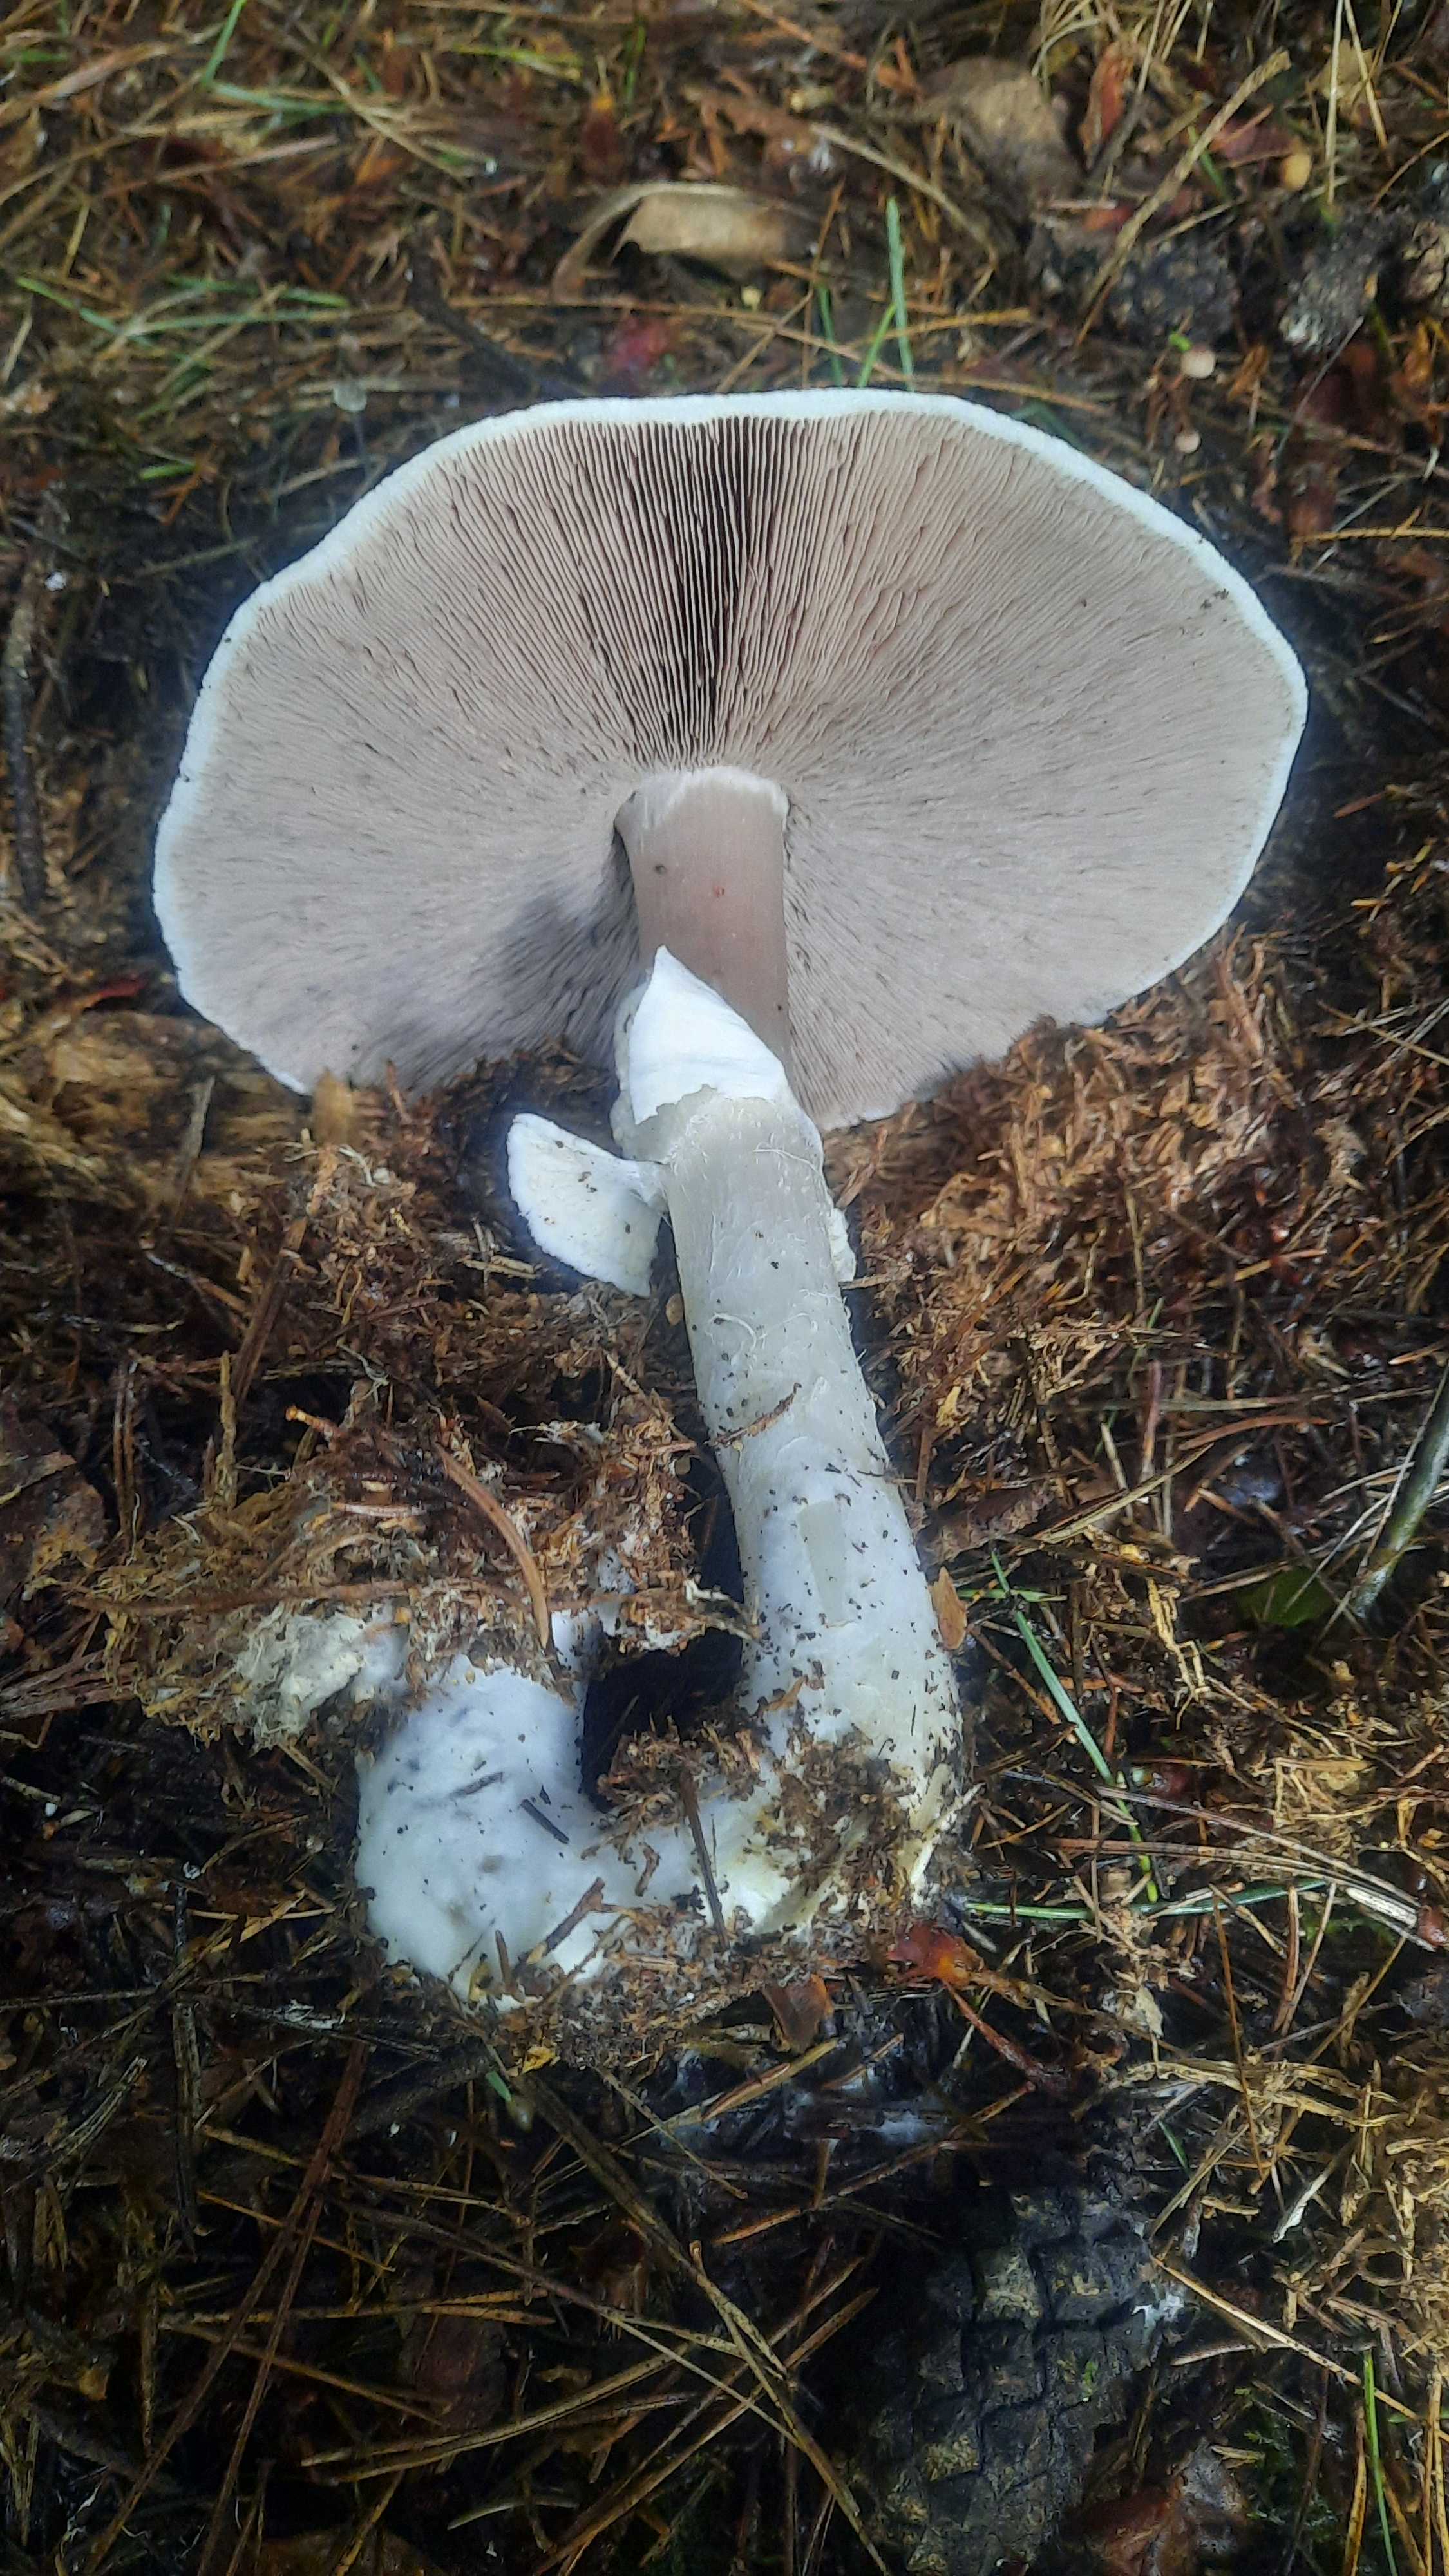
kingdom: Fungi
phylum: Basidiomycota
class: Agaricomycetes
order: Agaricales
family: Agaricaceae
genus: Agaricus
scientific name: Agaricus sylvicola
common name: gulhvid champignon
